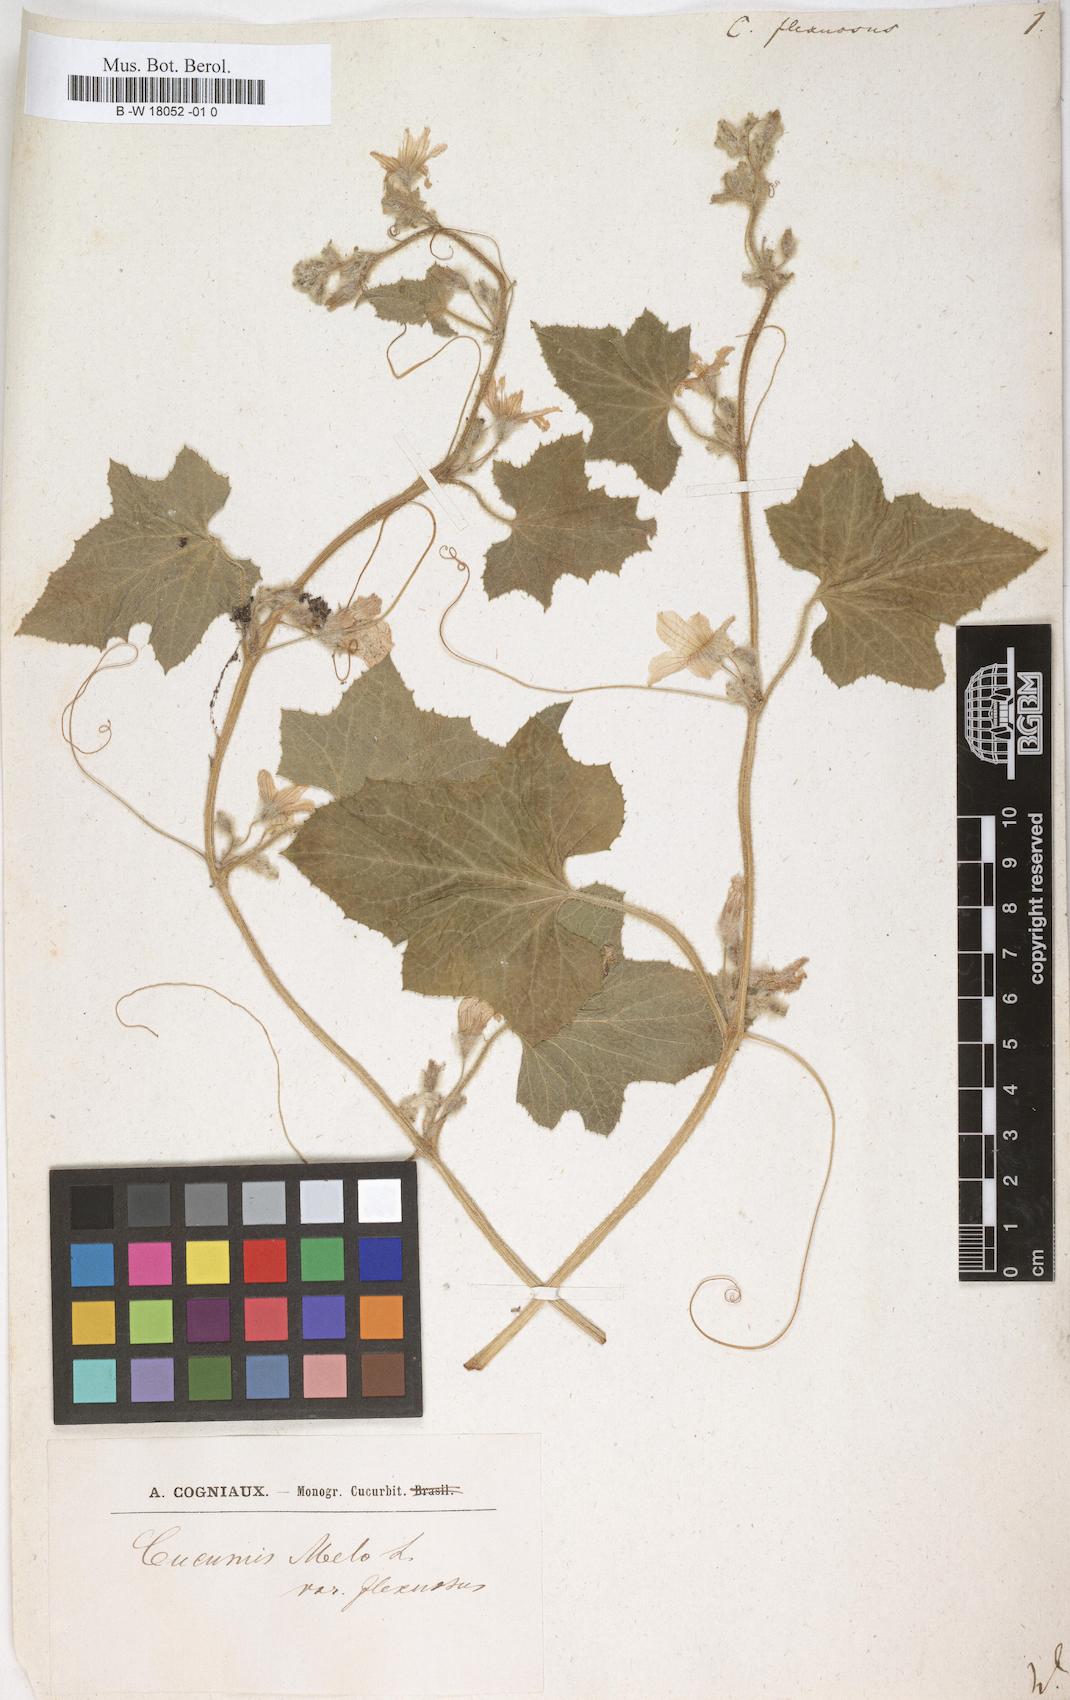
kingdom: Plantae
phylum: Tracheophyta
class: Magnoliopsida
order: Cucurbitales
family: Cucurbitaceae
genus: Cucumis
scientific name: Cucumis melo
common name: Melon
